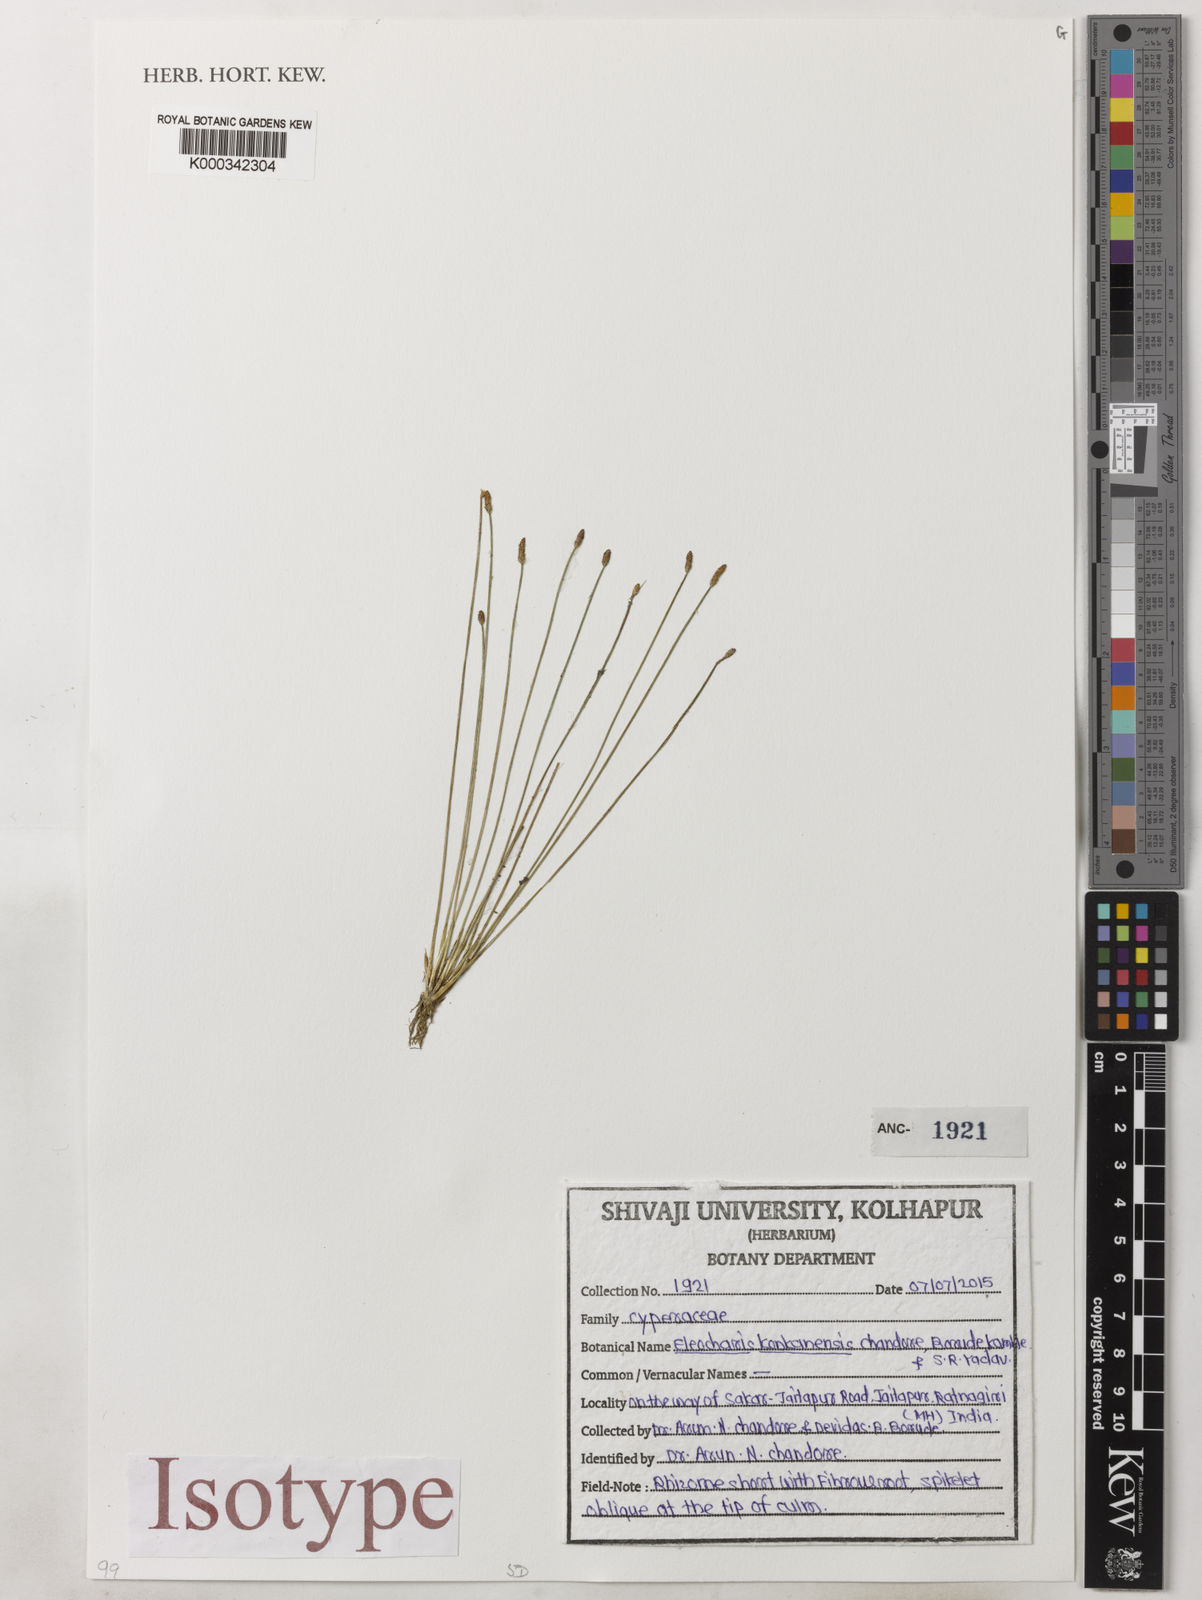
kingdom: Plantae
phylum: Tracheophyta
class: Liliopsida
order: Poales
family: Cyperaceae
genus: Eleocharis
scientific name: Eleocharis konkanensis
